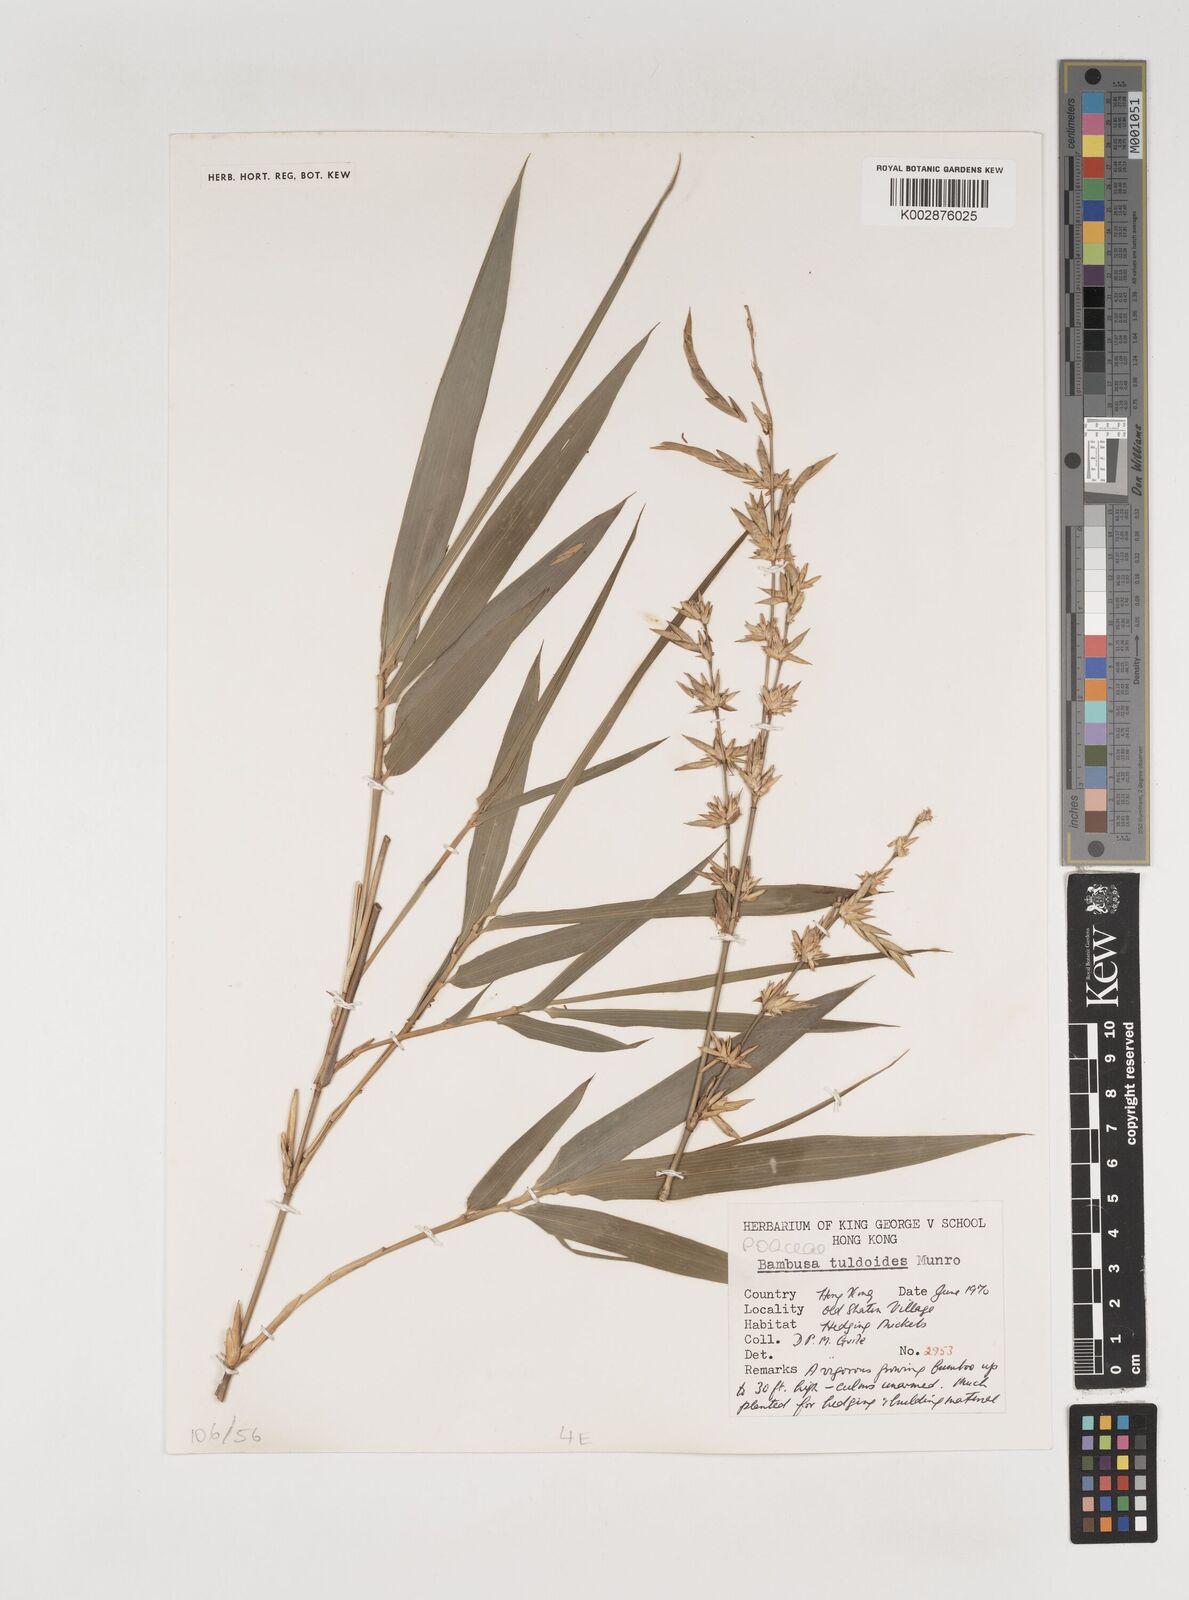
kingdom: Plantae
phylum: Tracheophyta
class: Liliopsida
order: Poales
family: Poaceae
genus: Bambusa
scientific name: Bambusa tuldoides
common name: Verdant bamboo
